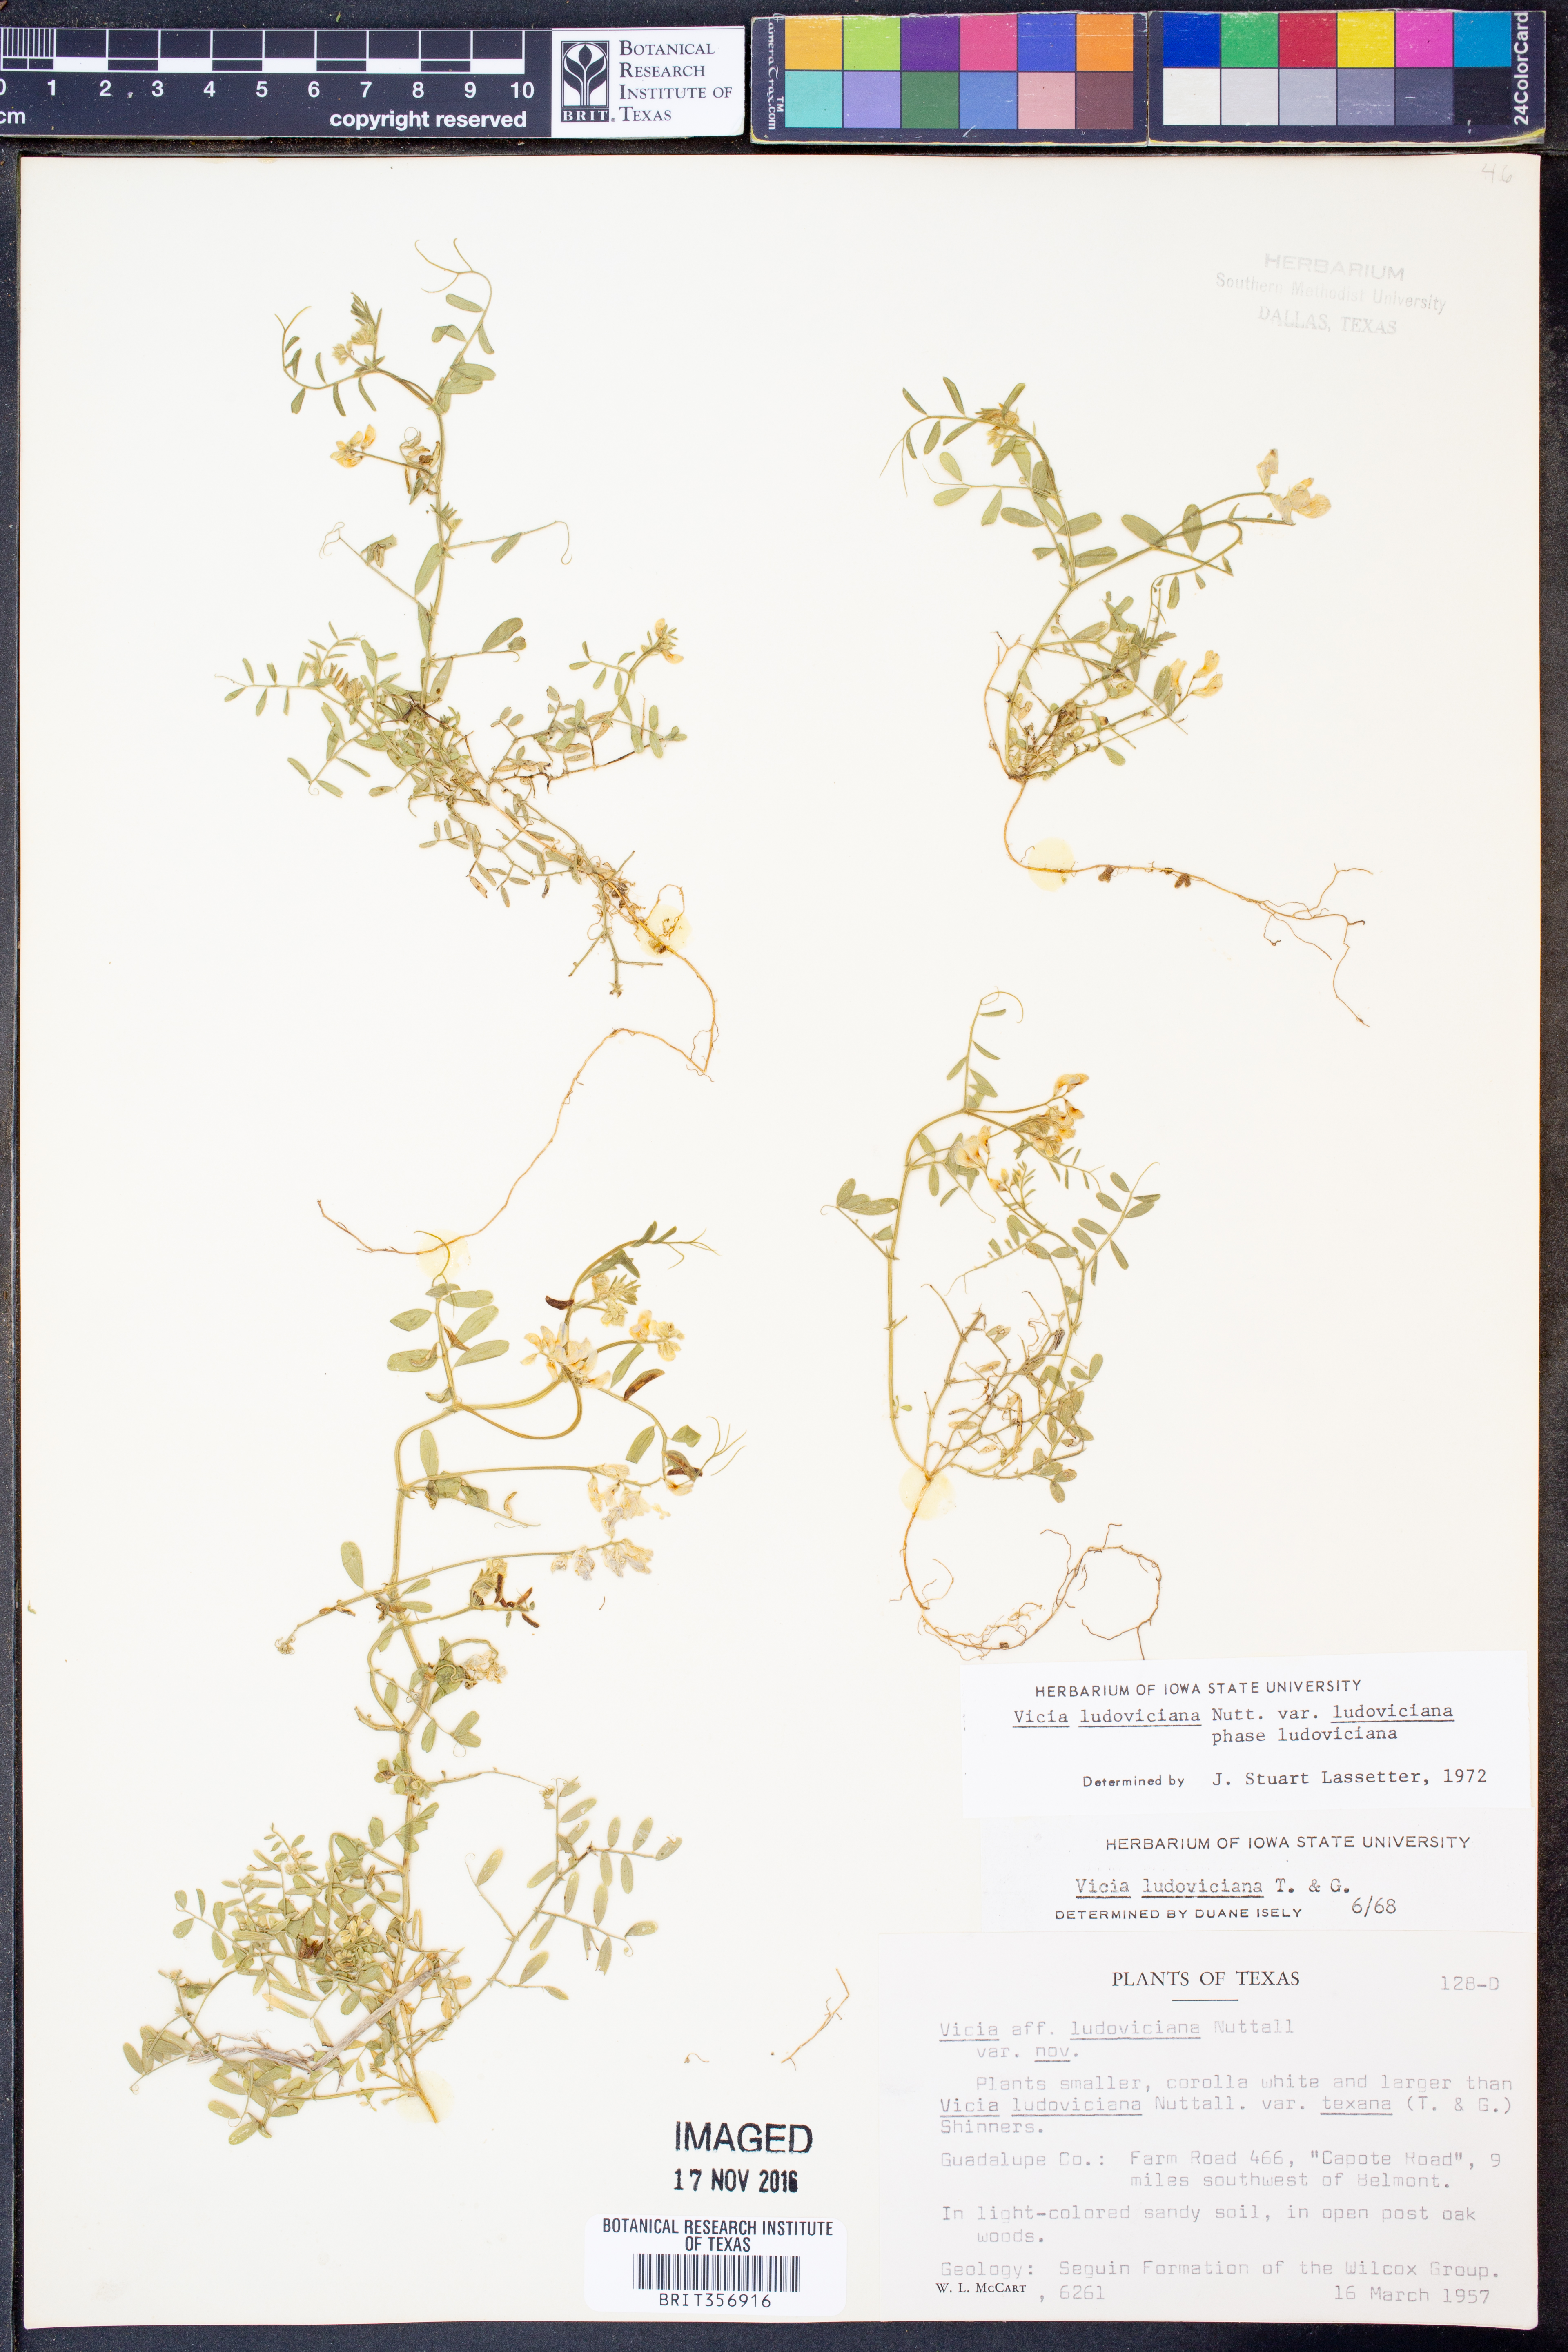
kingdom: Plantae
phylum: Tracheophyta
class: Magnoliopsida
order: Fabales
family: Fabaceae
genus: Vicia
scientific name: Vicia ludoviciana
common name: Louisiana vetch
